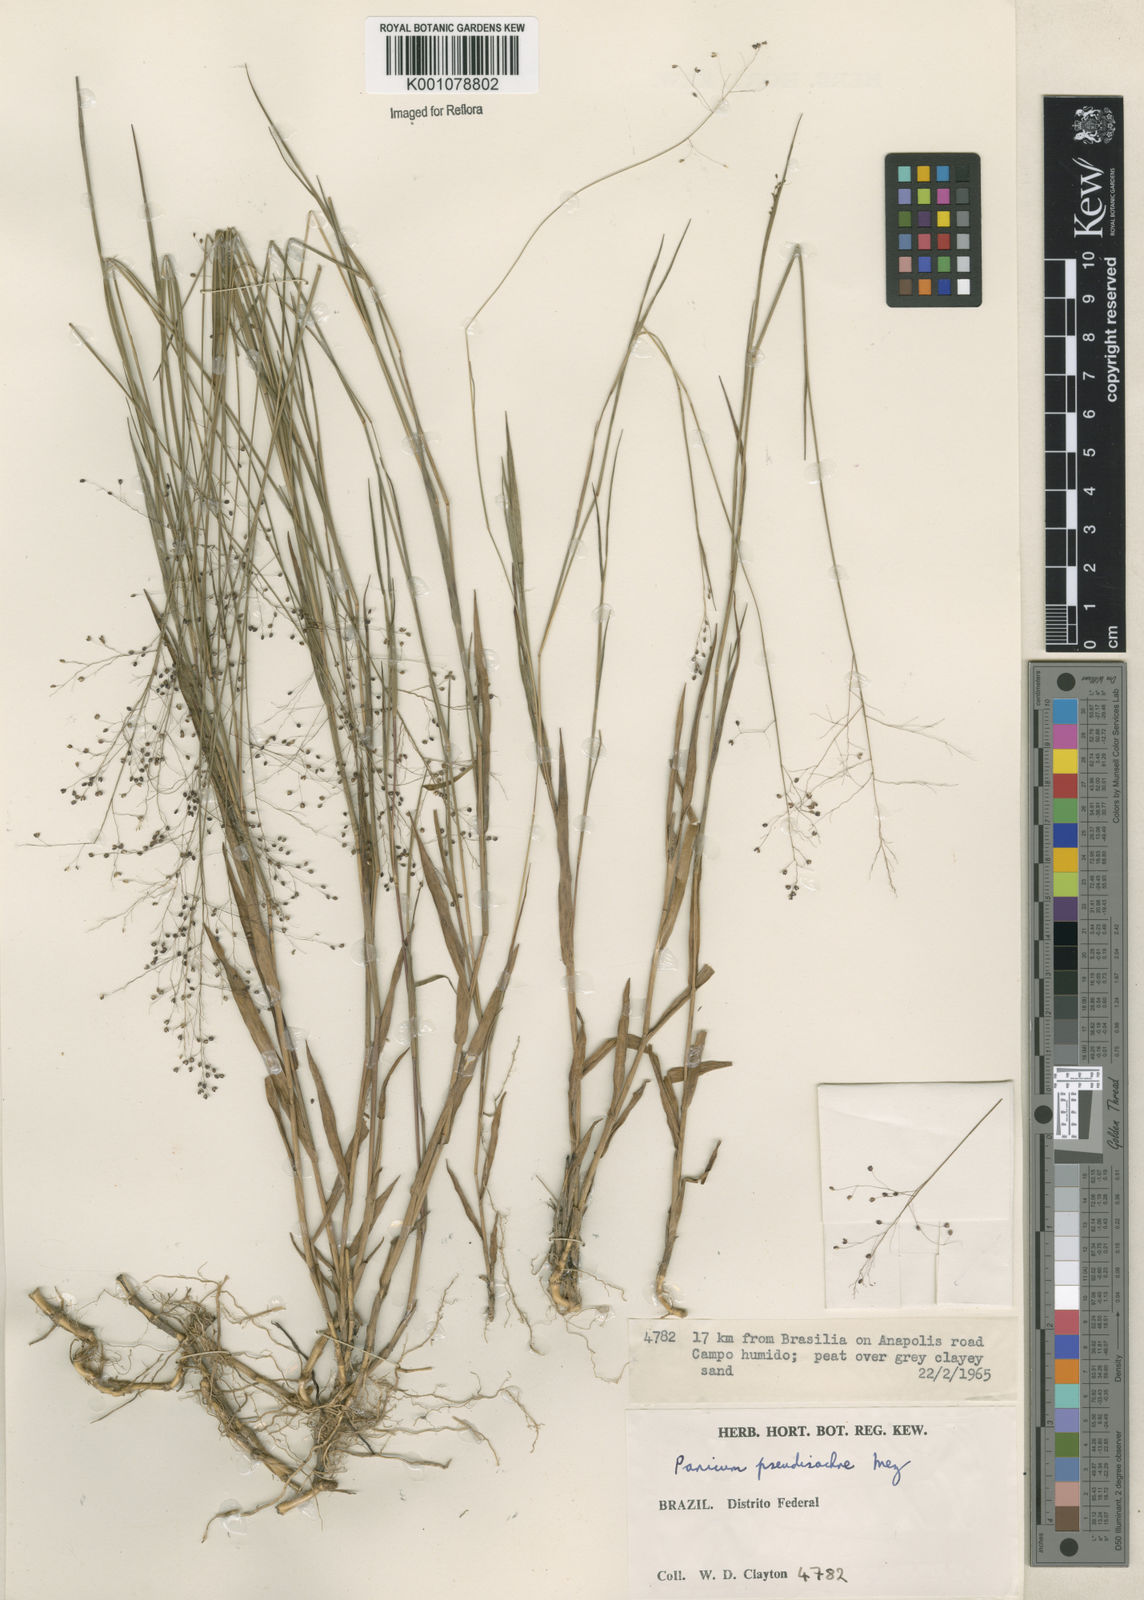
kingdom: Plantae
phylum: Tracheophyta
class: Liliopsida
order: Poales
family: Poaceae
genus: Trichanthecium
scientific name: Trichanthecium pseudisachne
